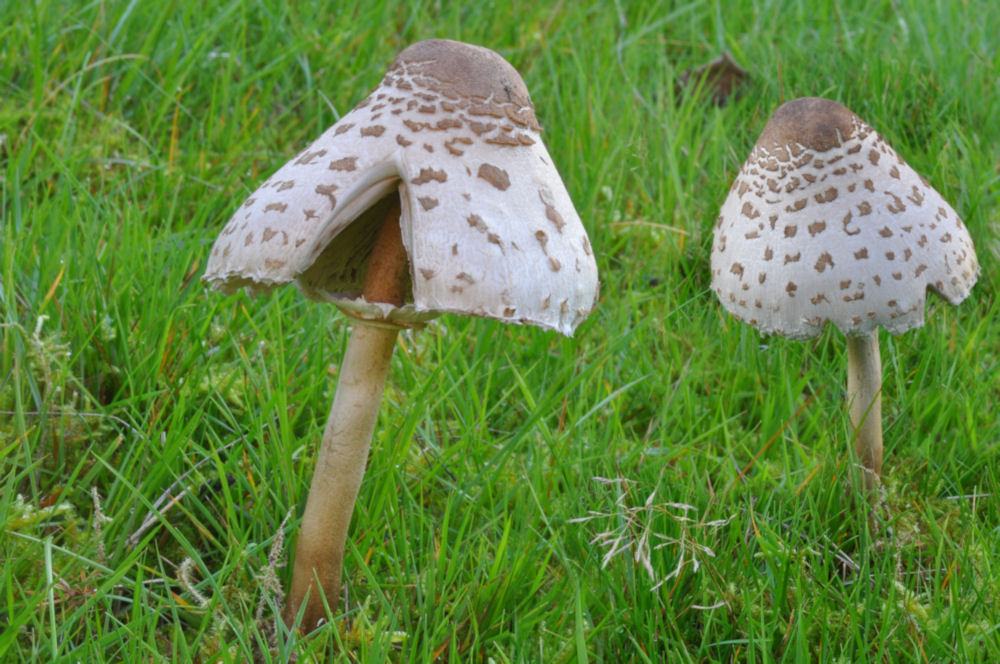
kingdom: Fungi
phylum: Basidiomycota
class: Agaricomycetes
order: Agaricales
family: Agaricaceae
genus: Macrolepiota
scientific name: Macrolepiota procera
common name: stor kæmpeparasolhat
